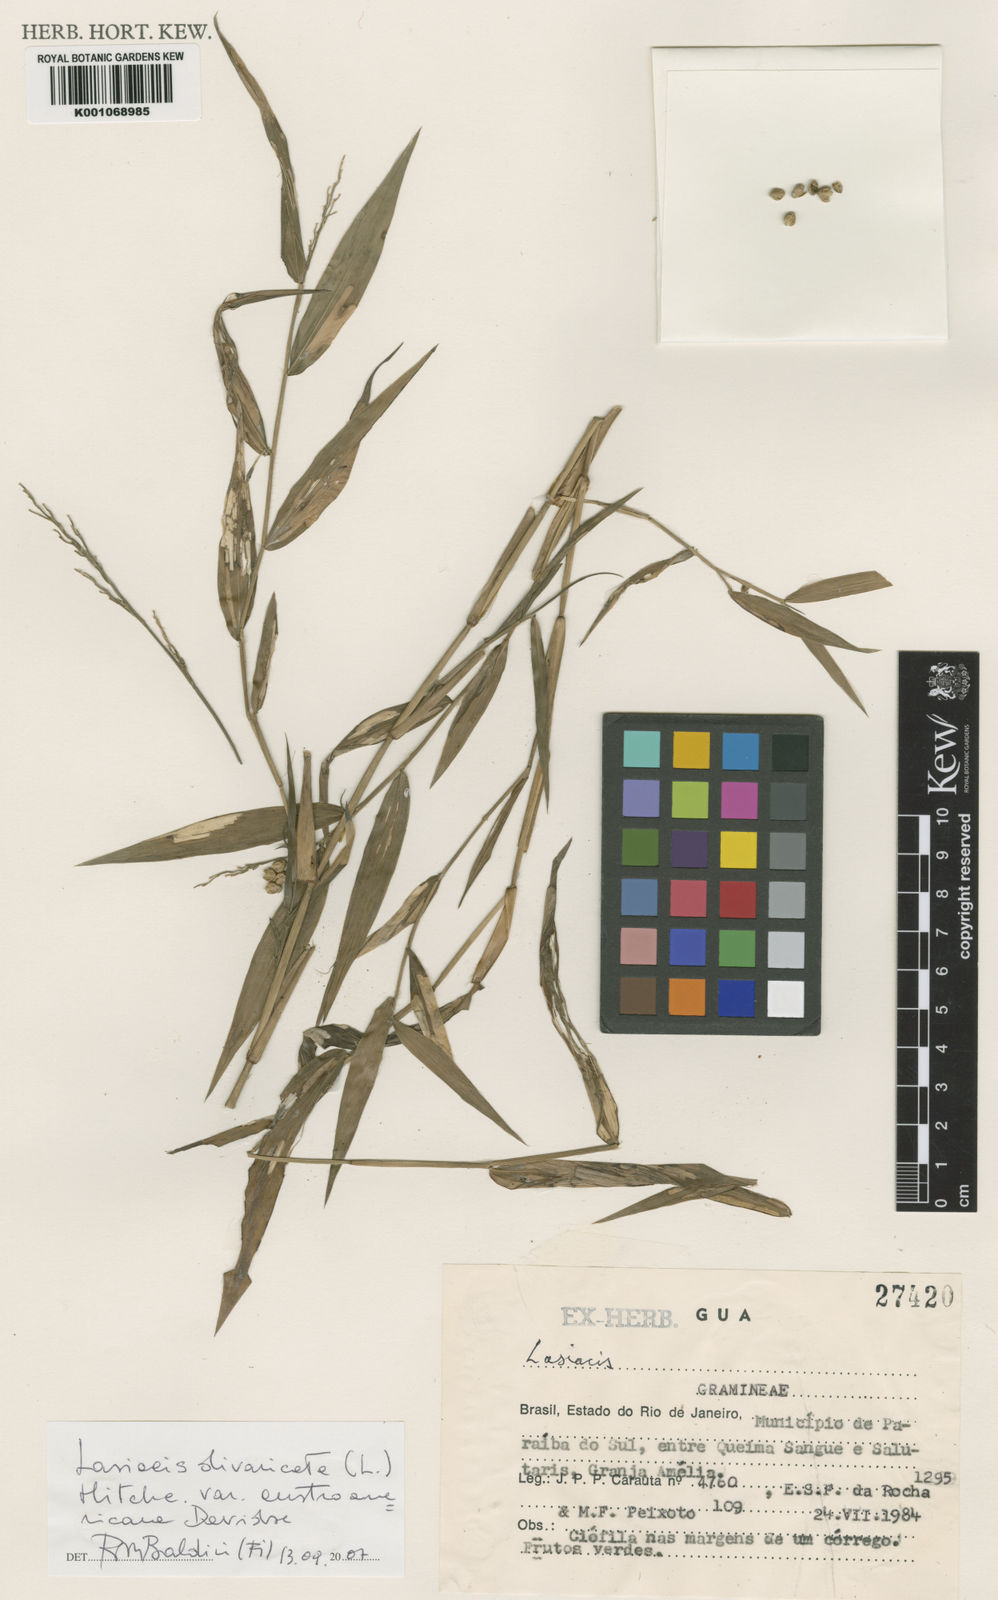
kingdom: Plantae
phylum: Tracheophyta
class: Liliopsida
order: Poales
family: Poaceae
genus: Lasiacis
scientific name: Lasiacis divaricata
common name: Smallcane
